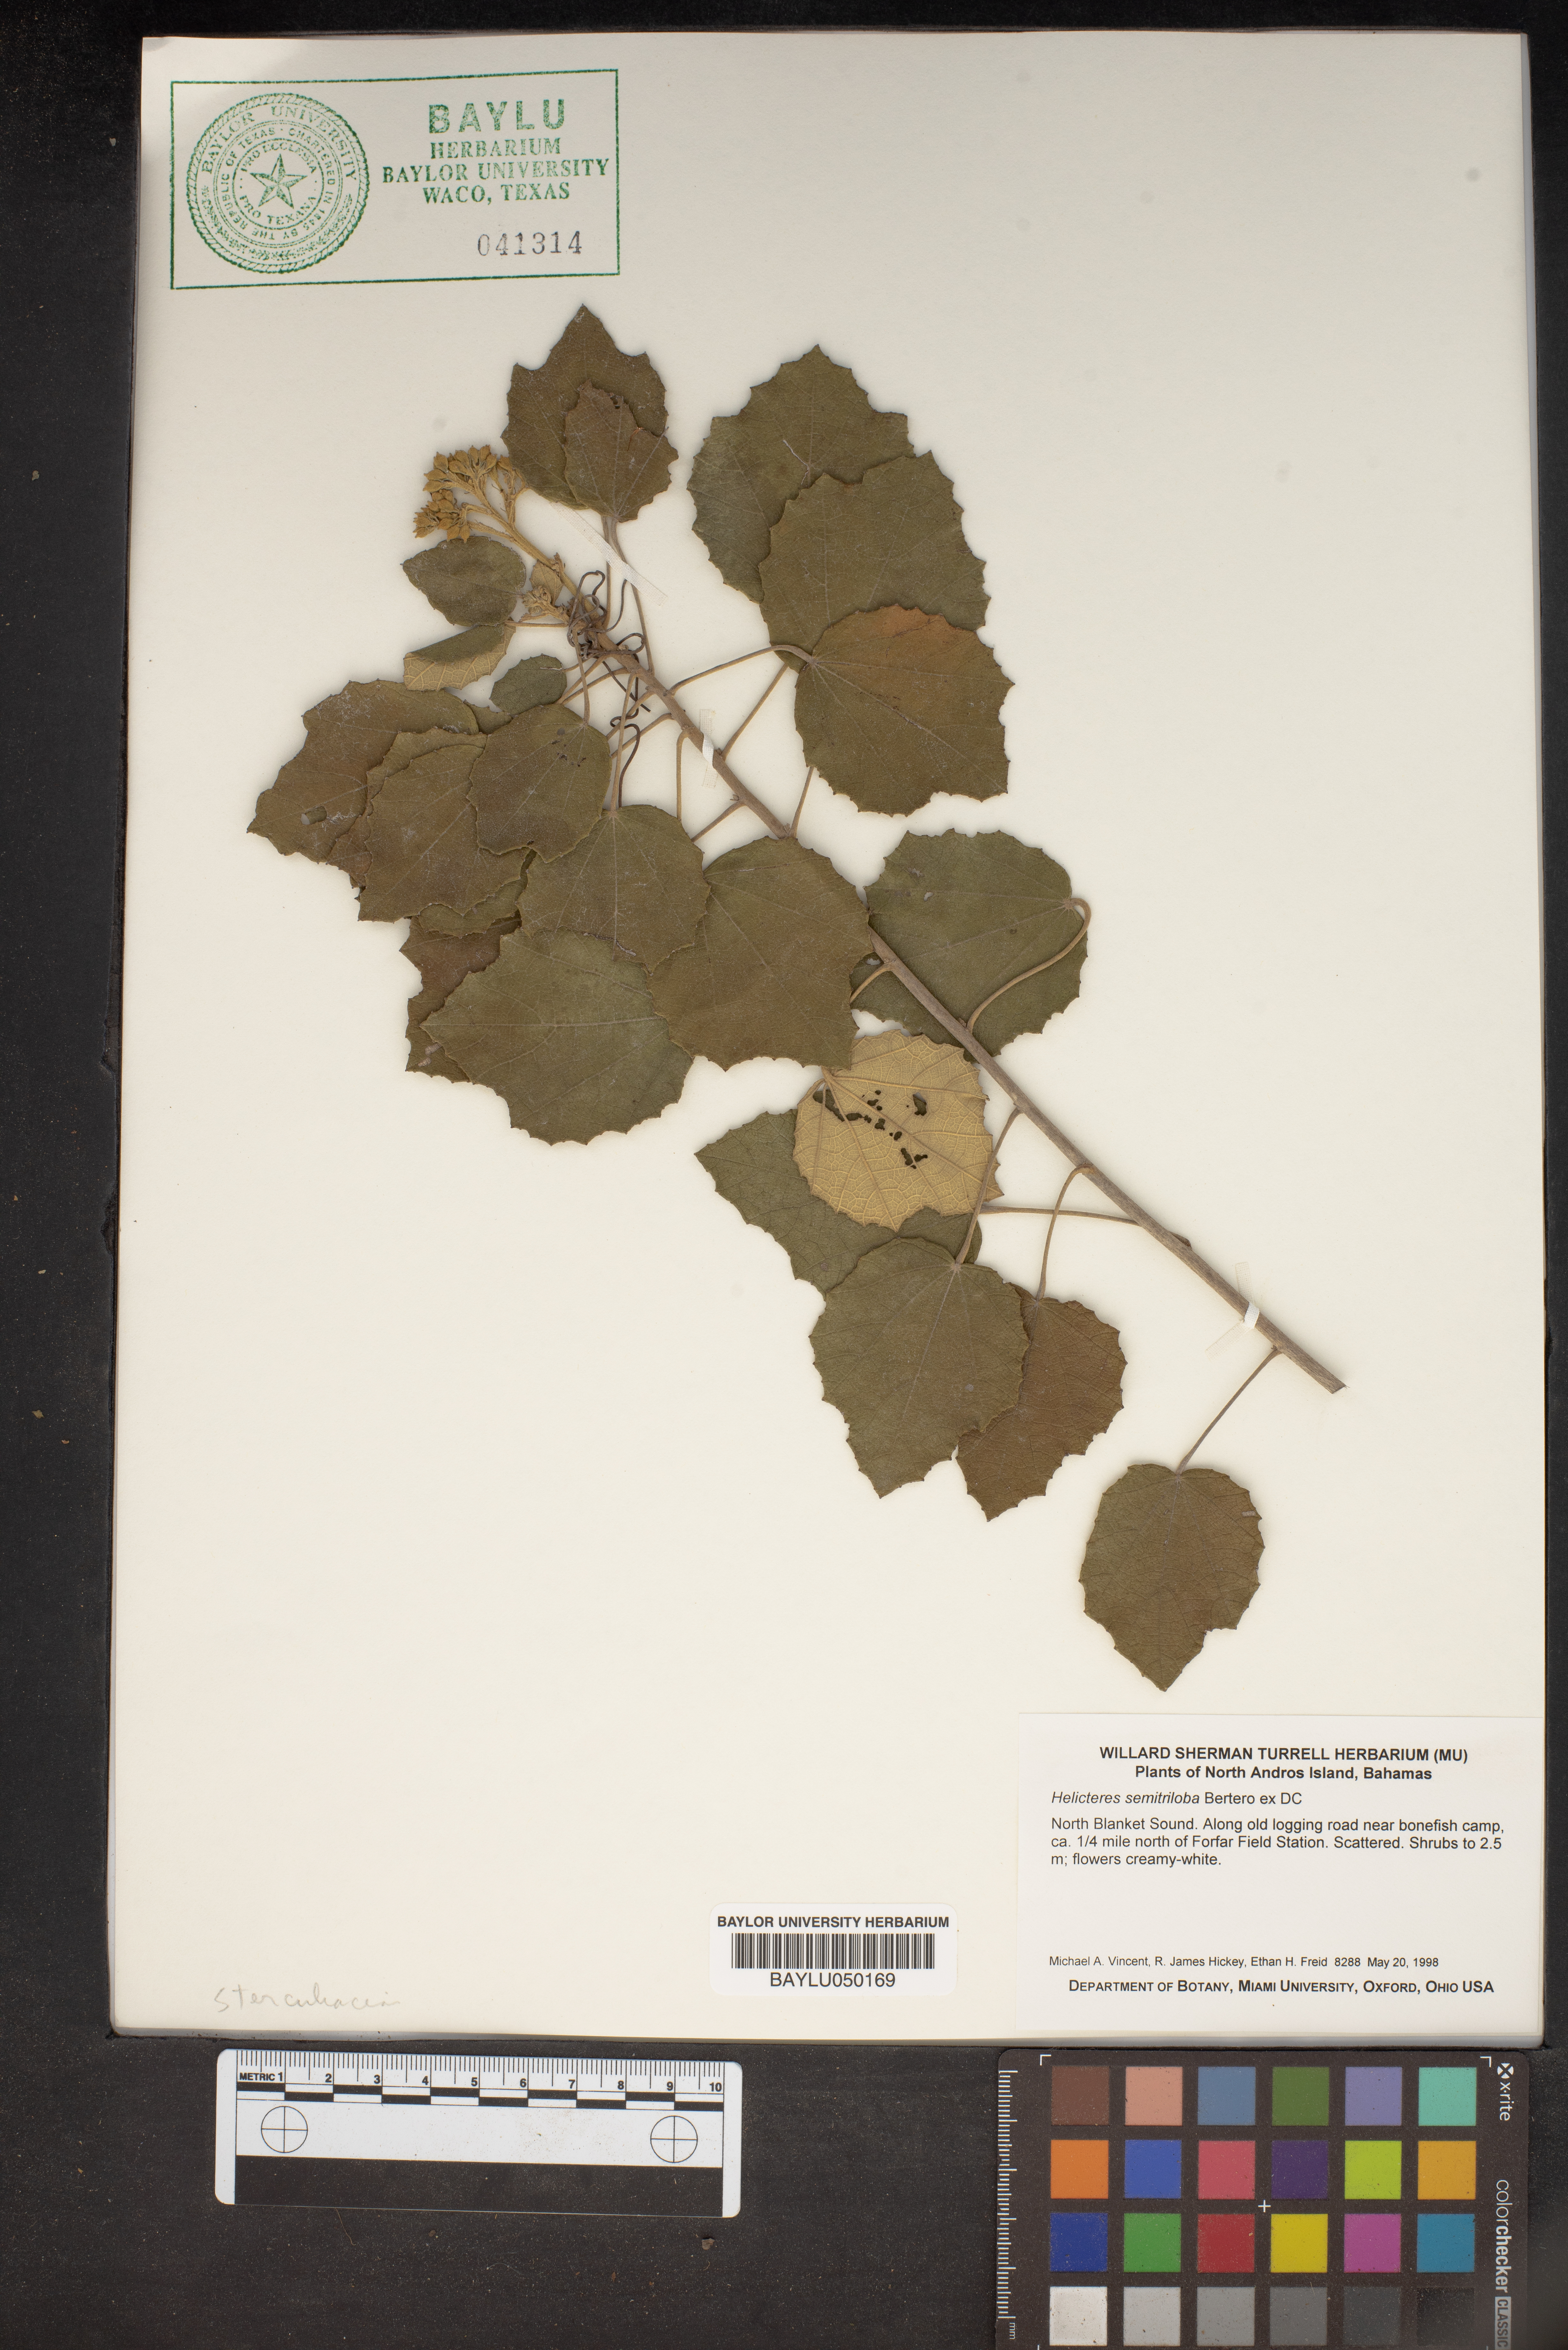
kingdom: Plantae
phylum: Tracheophyta
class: Magnoliopsida
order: Malvales
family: Malvaceae
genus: Helicteres
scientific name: Helicteres semitriloba
